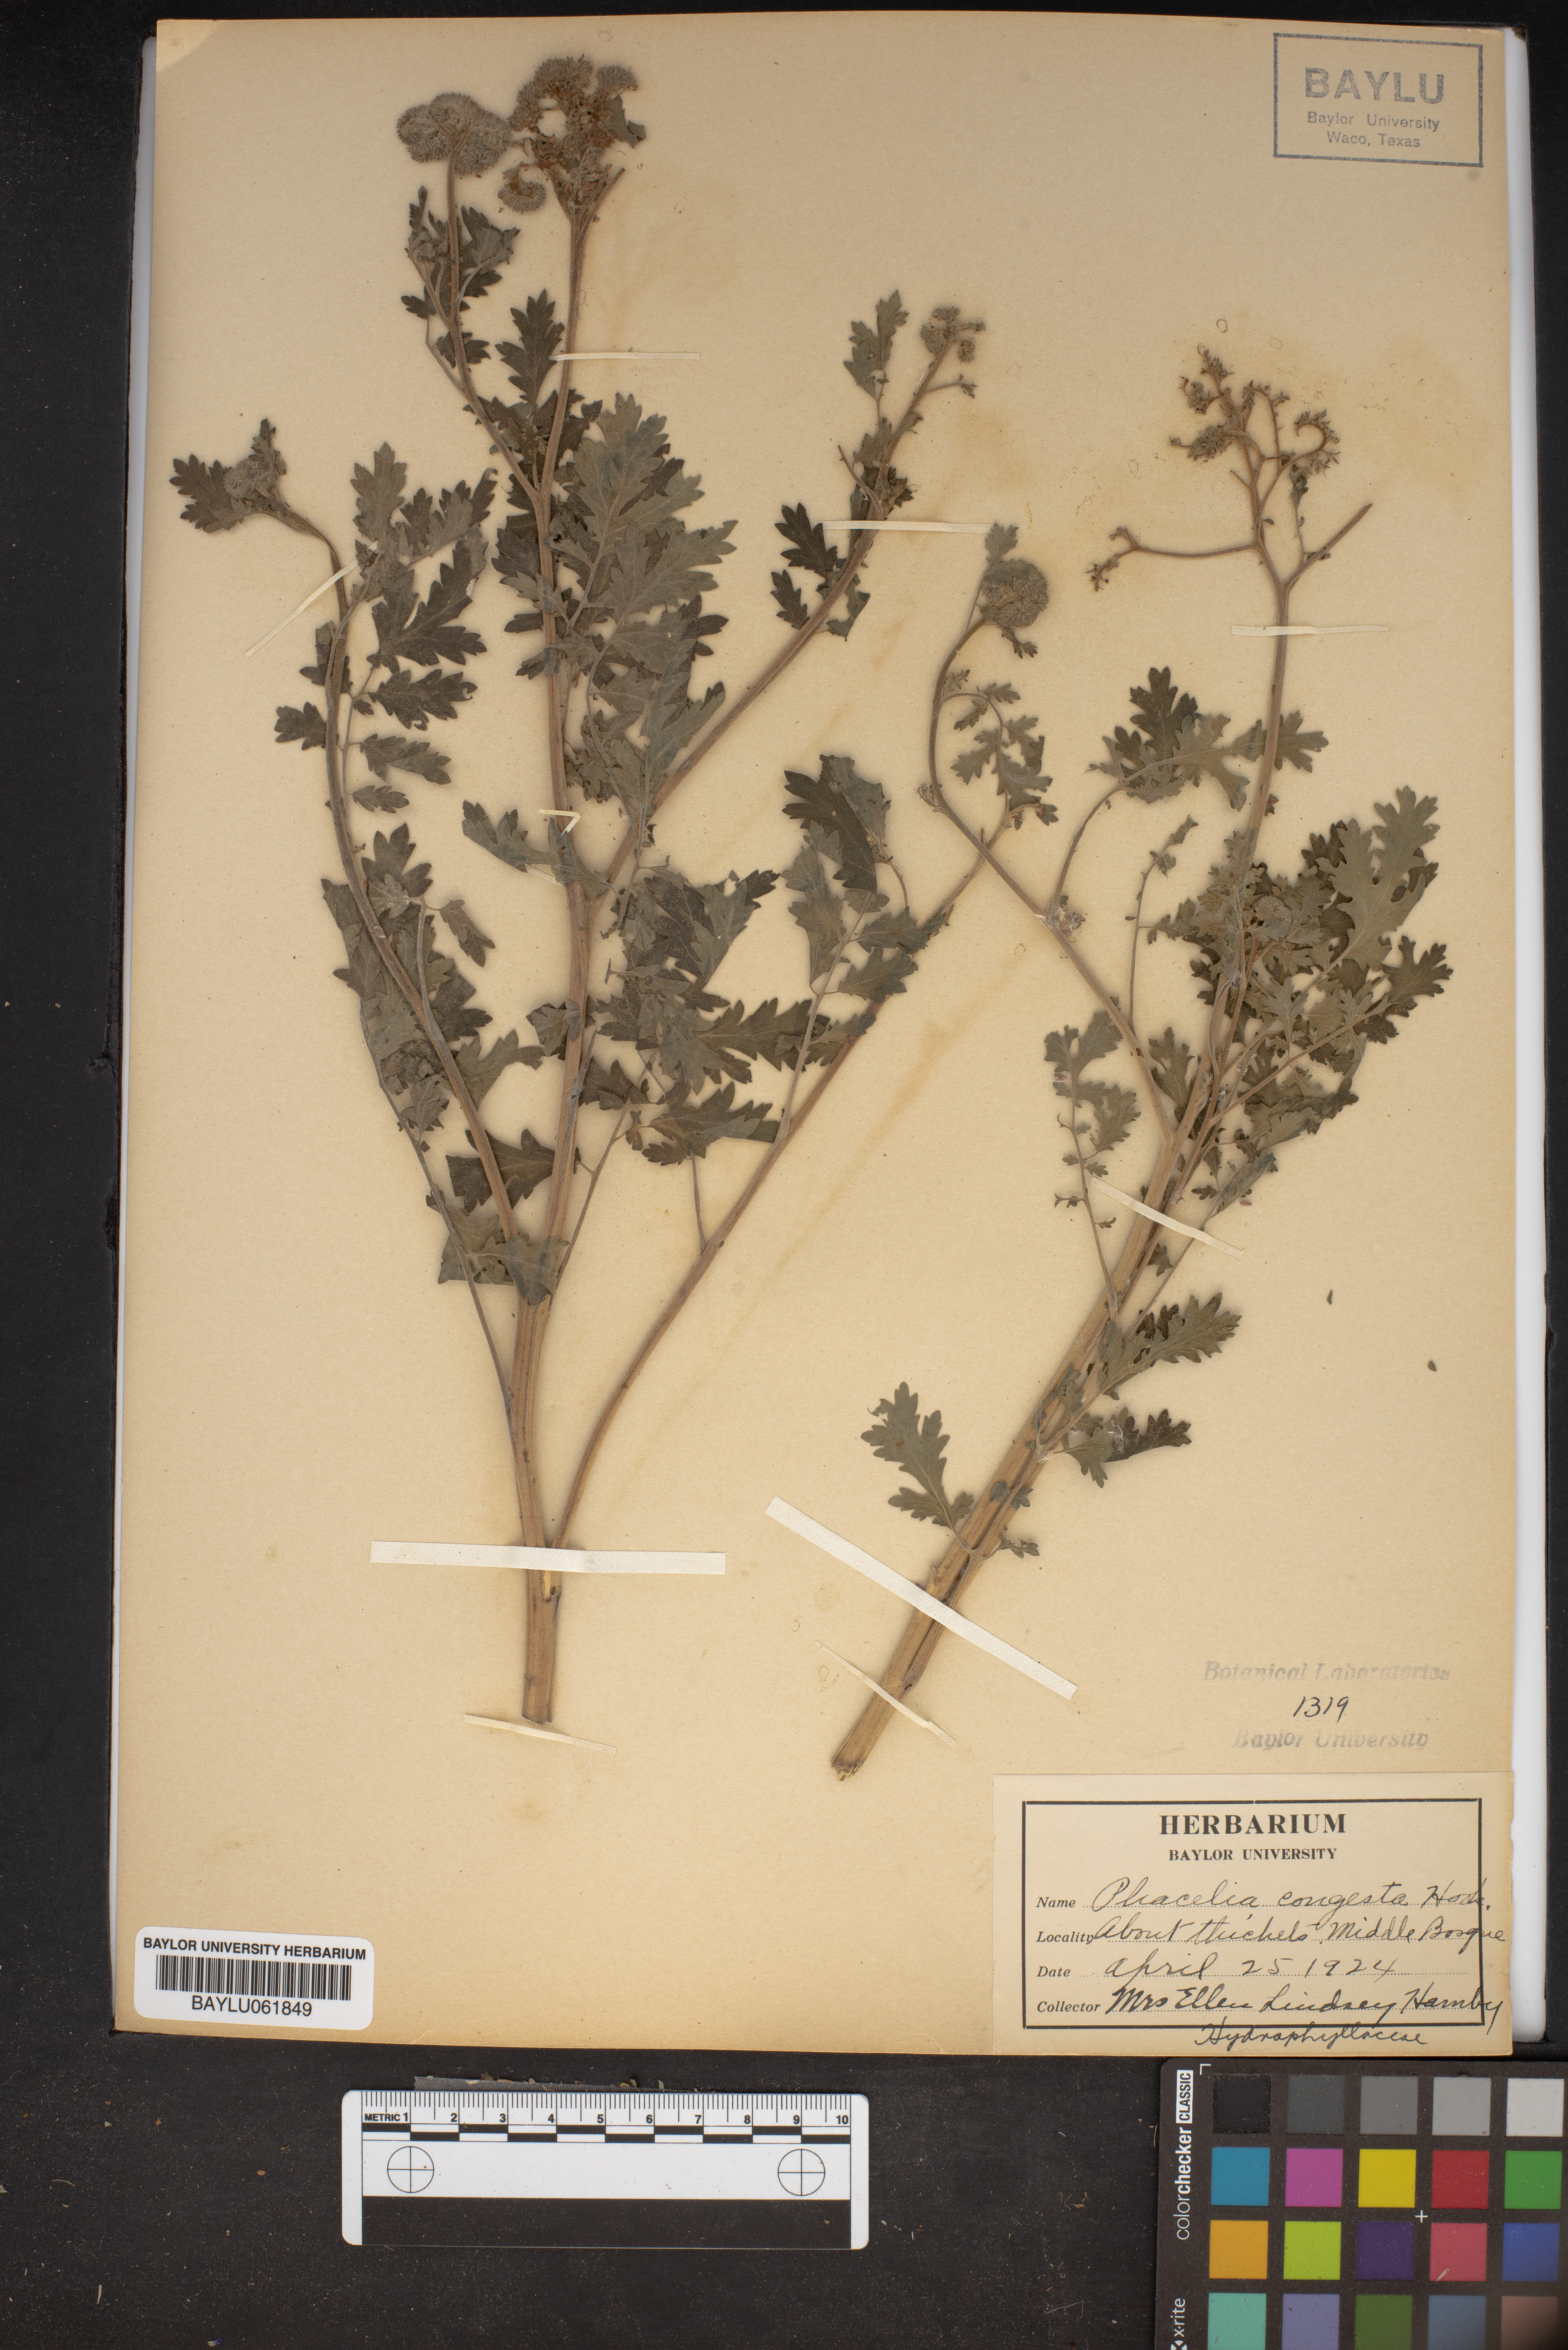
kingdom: Plantae
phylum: Tracheophyta
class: Magnoliopsida
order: Boraginales
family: Hydrophyllaceae
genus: Phacelia
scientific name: Phacelia congesta
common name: Blue curls
